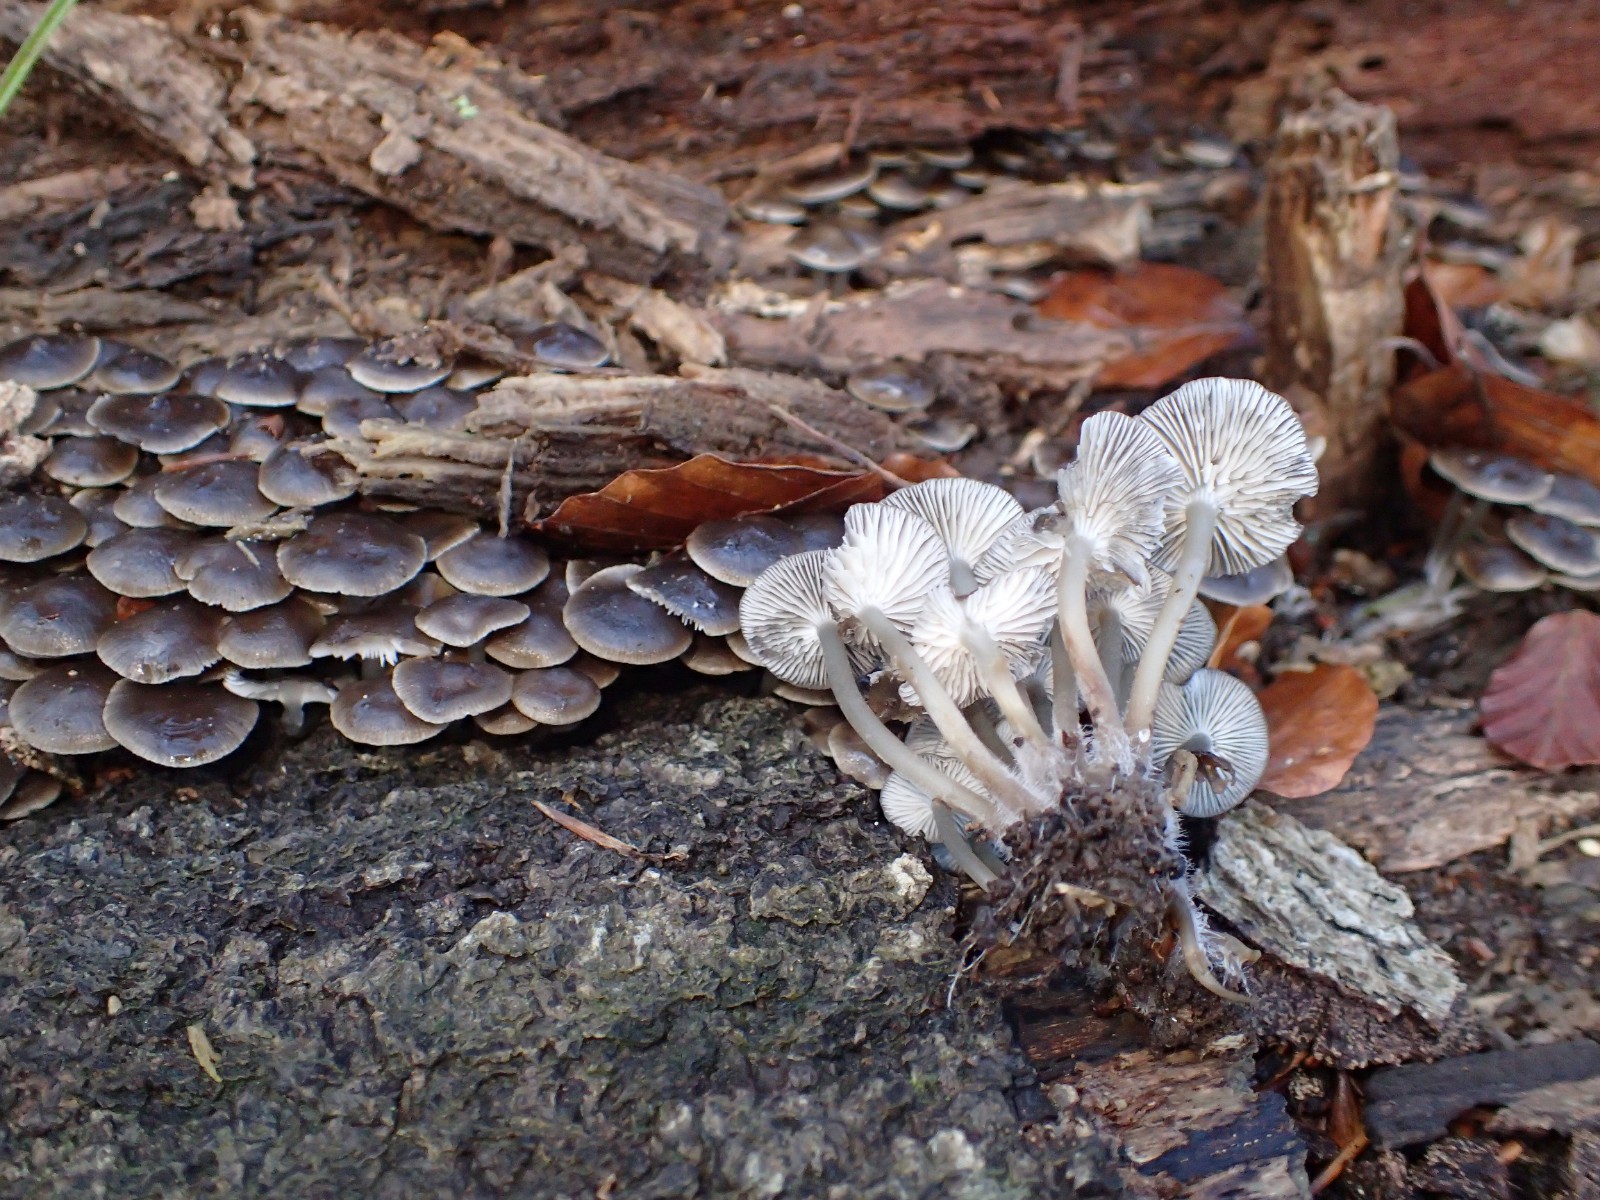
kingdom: Fungi
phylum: Basidiomycota
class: Agaricomycetes
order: Agaricales
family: Mycenaceae
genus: Mycena
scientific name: Mycena tintinnabulum
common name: vinter-huesvamp
